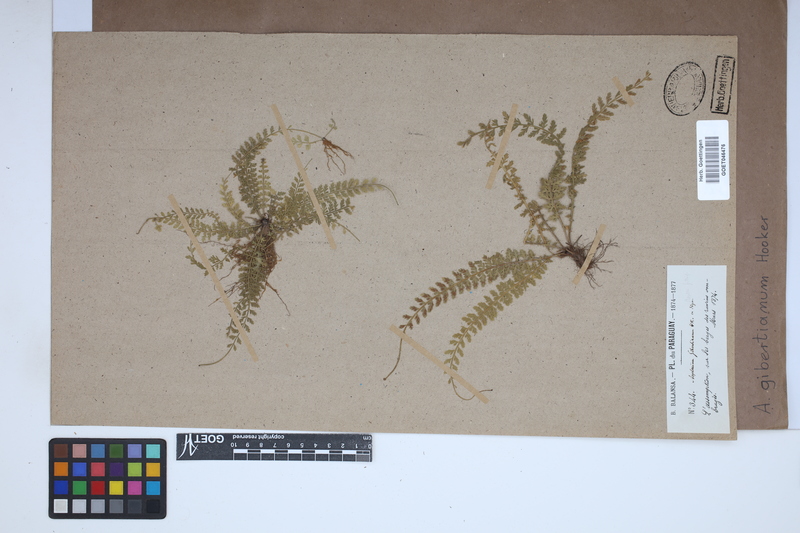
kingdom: Plantae
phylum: Tracheophyta
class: Polypodiopsida
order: Polypodiales
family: Aspleniaceae
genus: Asplenium
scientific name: Asplenium depauperatum
